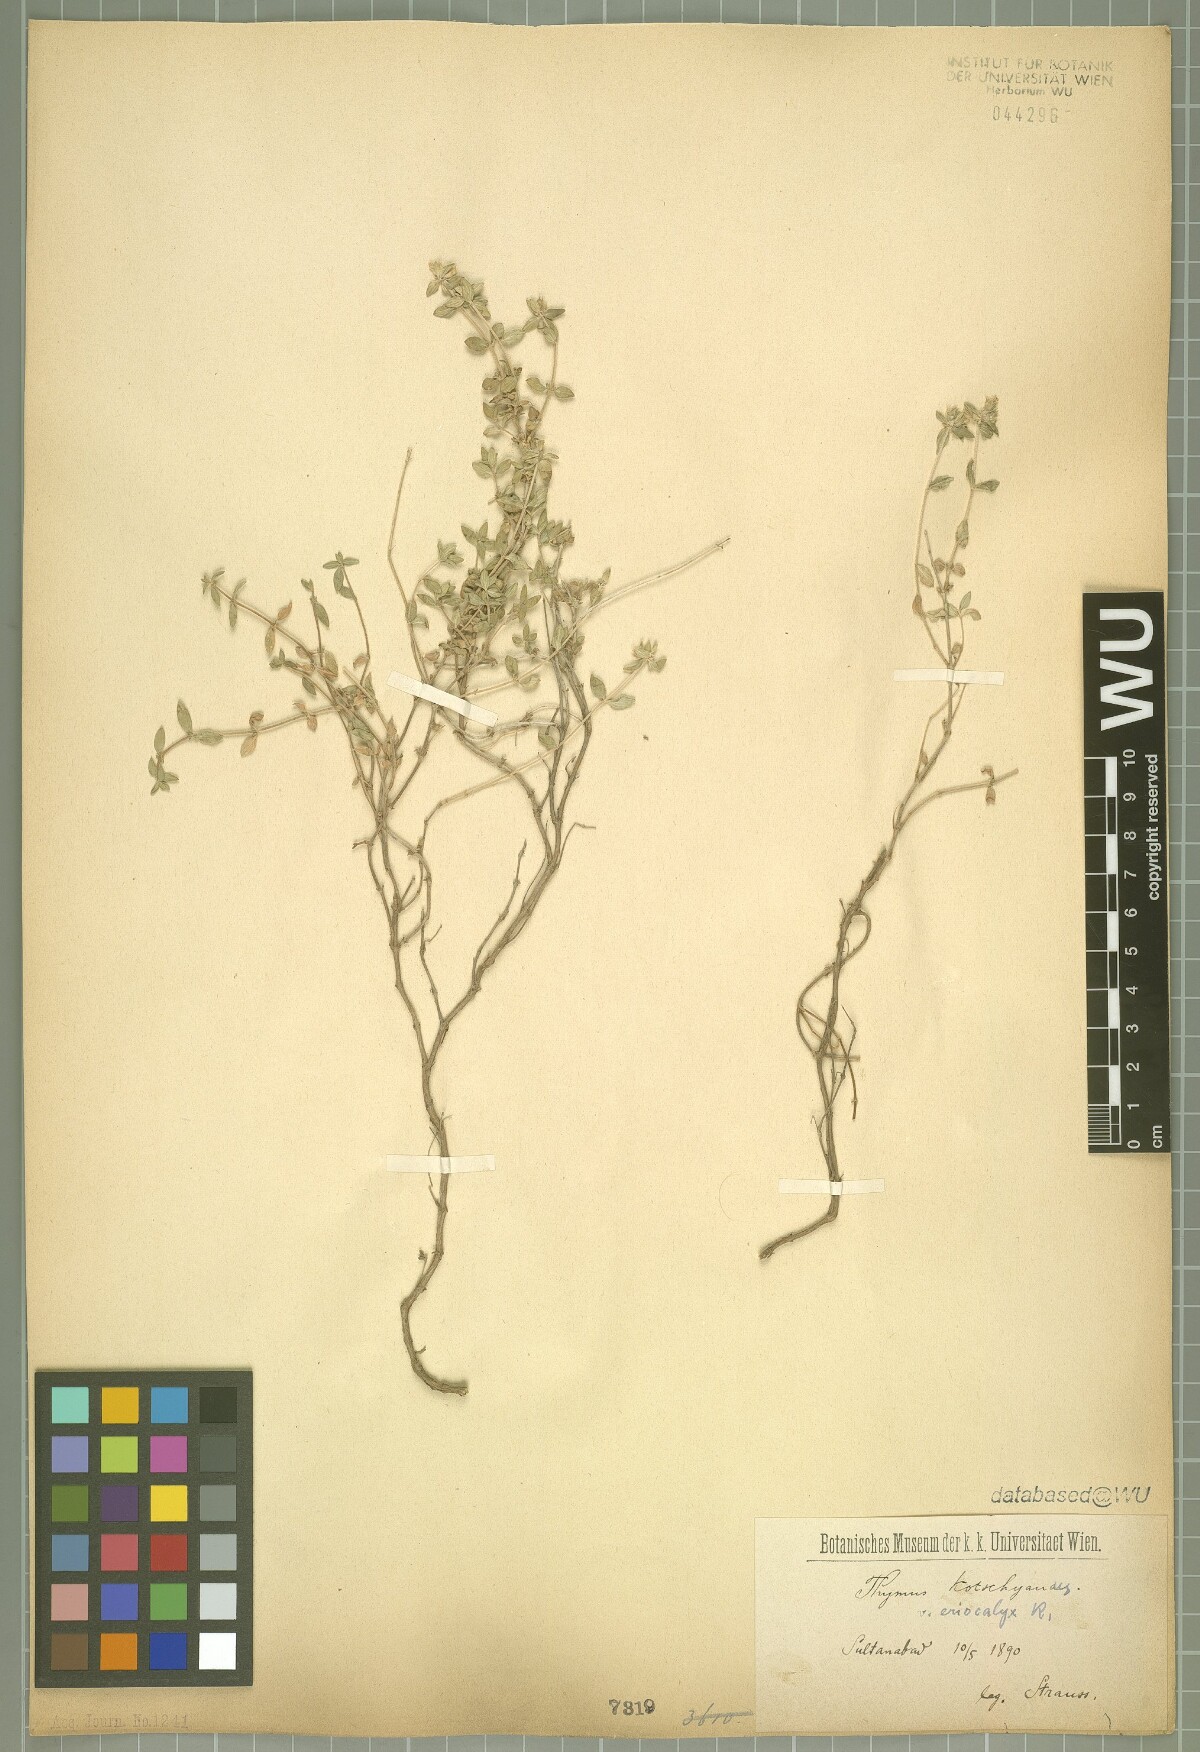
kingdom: Plantae
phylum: Tracheophyta
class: Magnoliopsida
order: Lamiales
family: Lamiaceae
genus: Thymus
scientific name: Thymus eriocalyx
